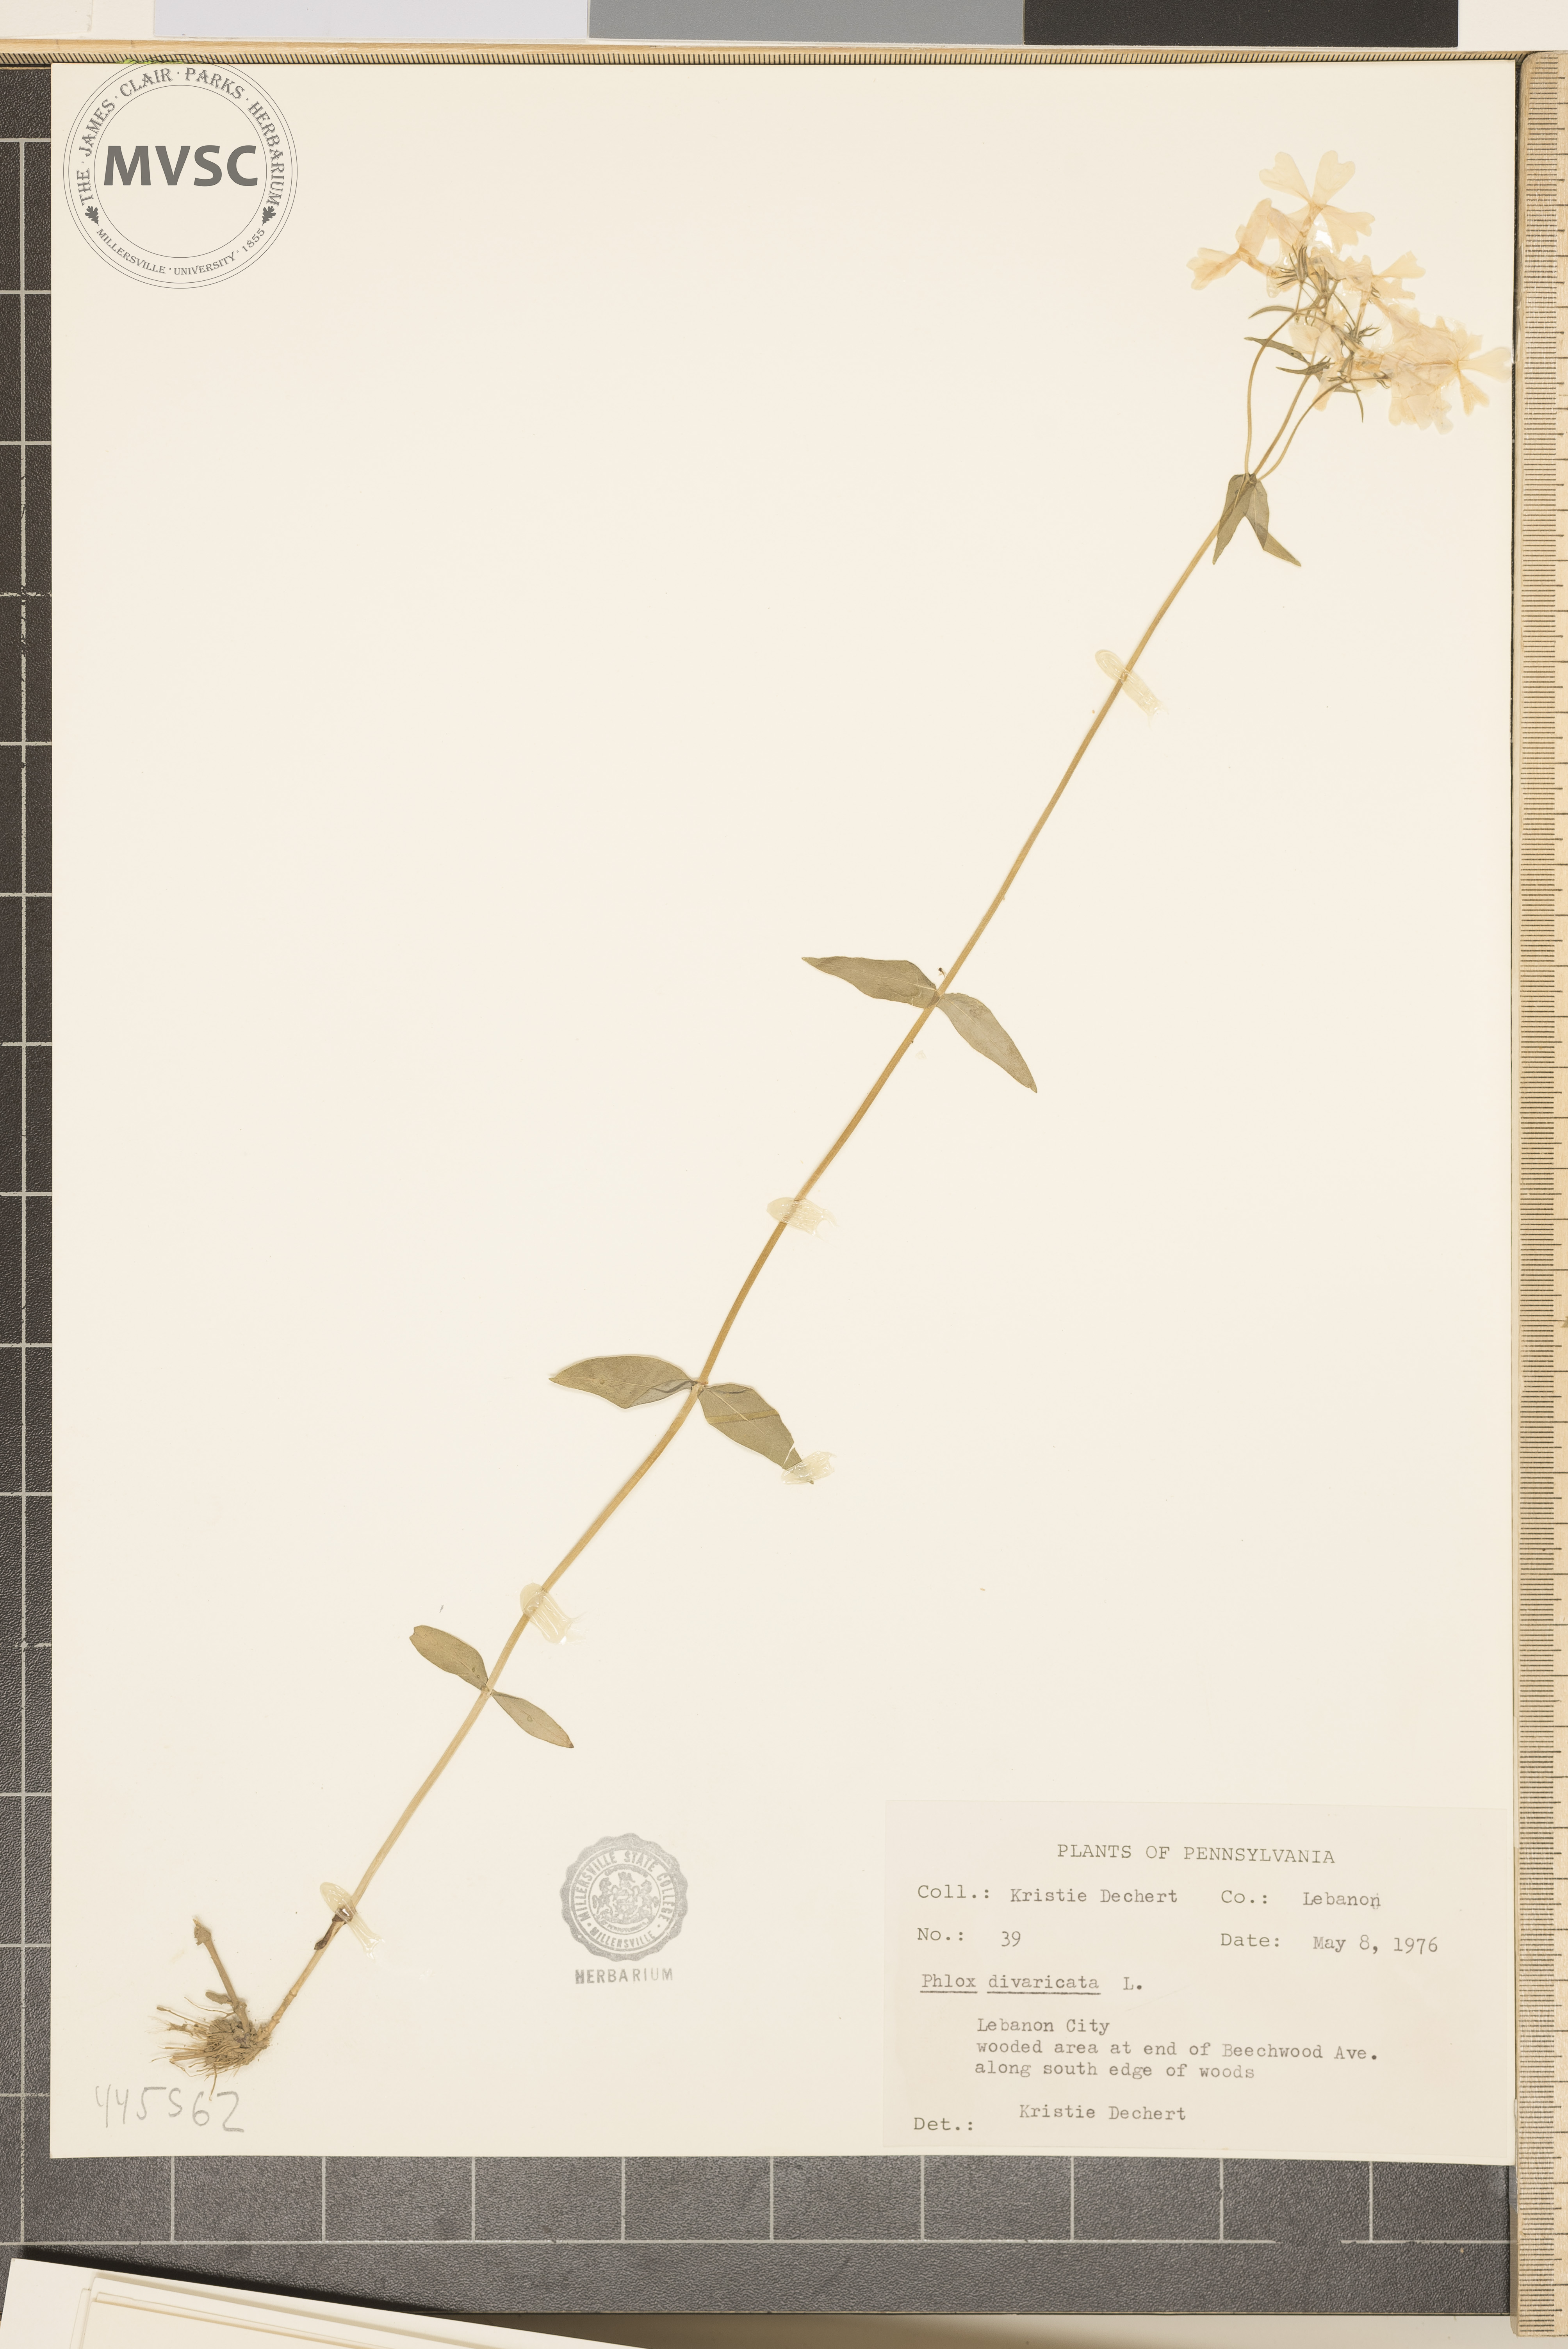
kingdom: Plantae
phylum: Tracheophyta
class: Magnoliopsida
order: Ericales
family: Polemoniaceae
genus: Phlox
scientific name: Phlox divaricata
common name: Blue phlox
